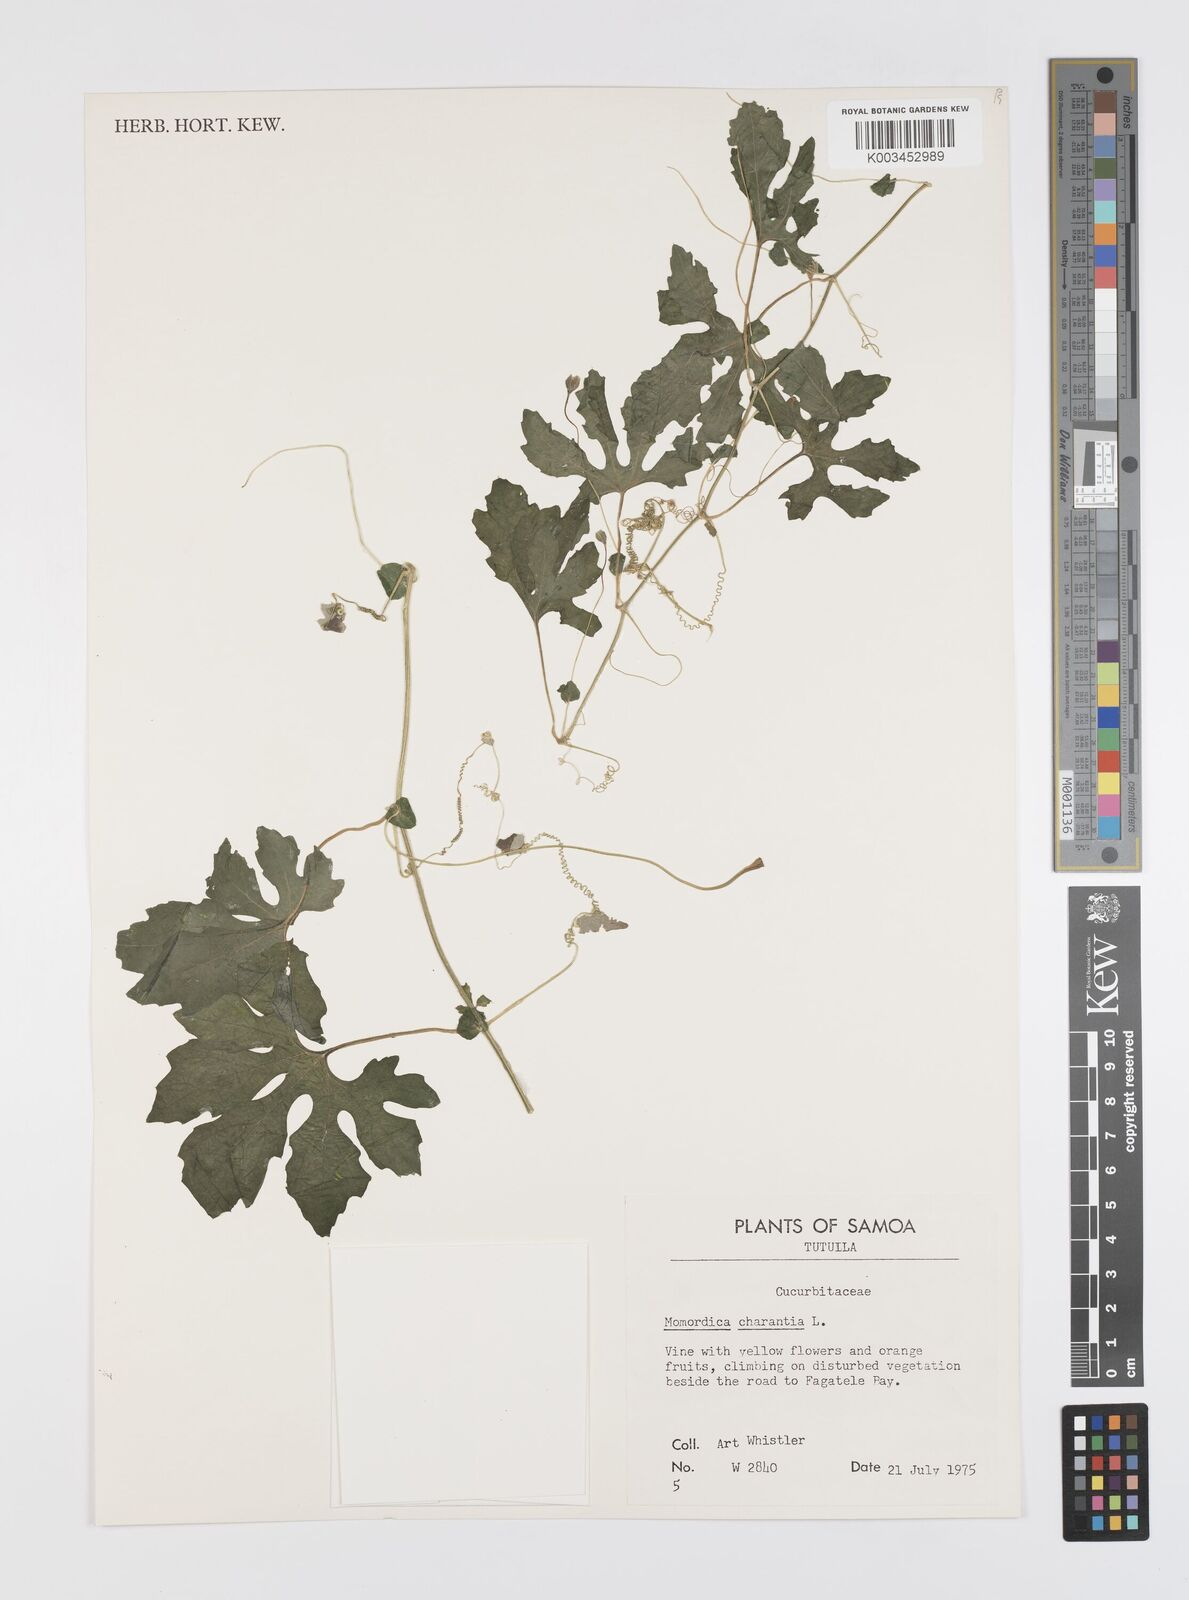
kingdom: Plantae
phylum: Tracheophyta
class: Magnoliopsida
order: Cucurbitales
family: Cucurbitaceae
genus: Momordica
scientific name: Momordica charantia
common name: Balsampear
